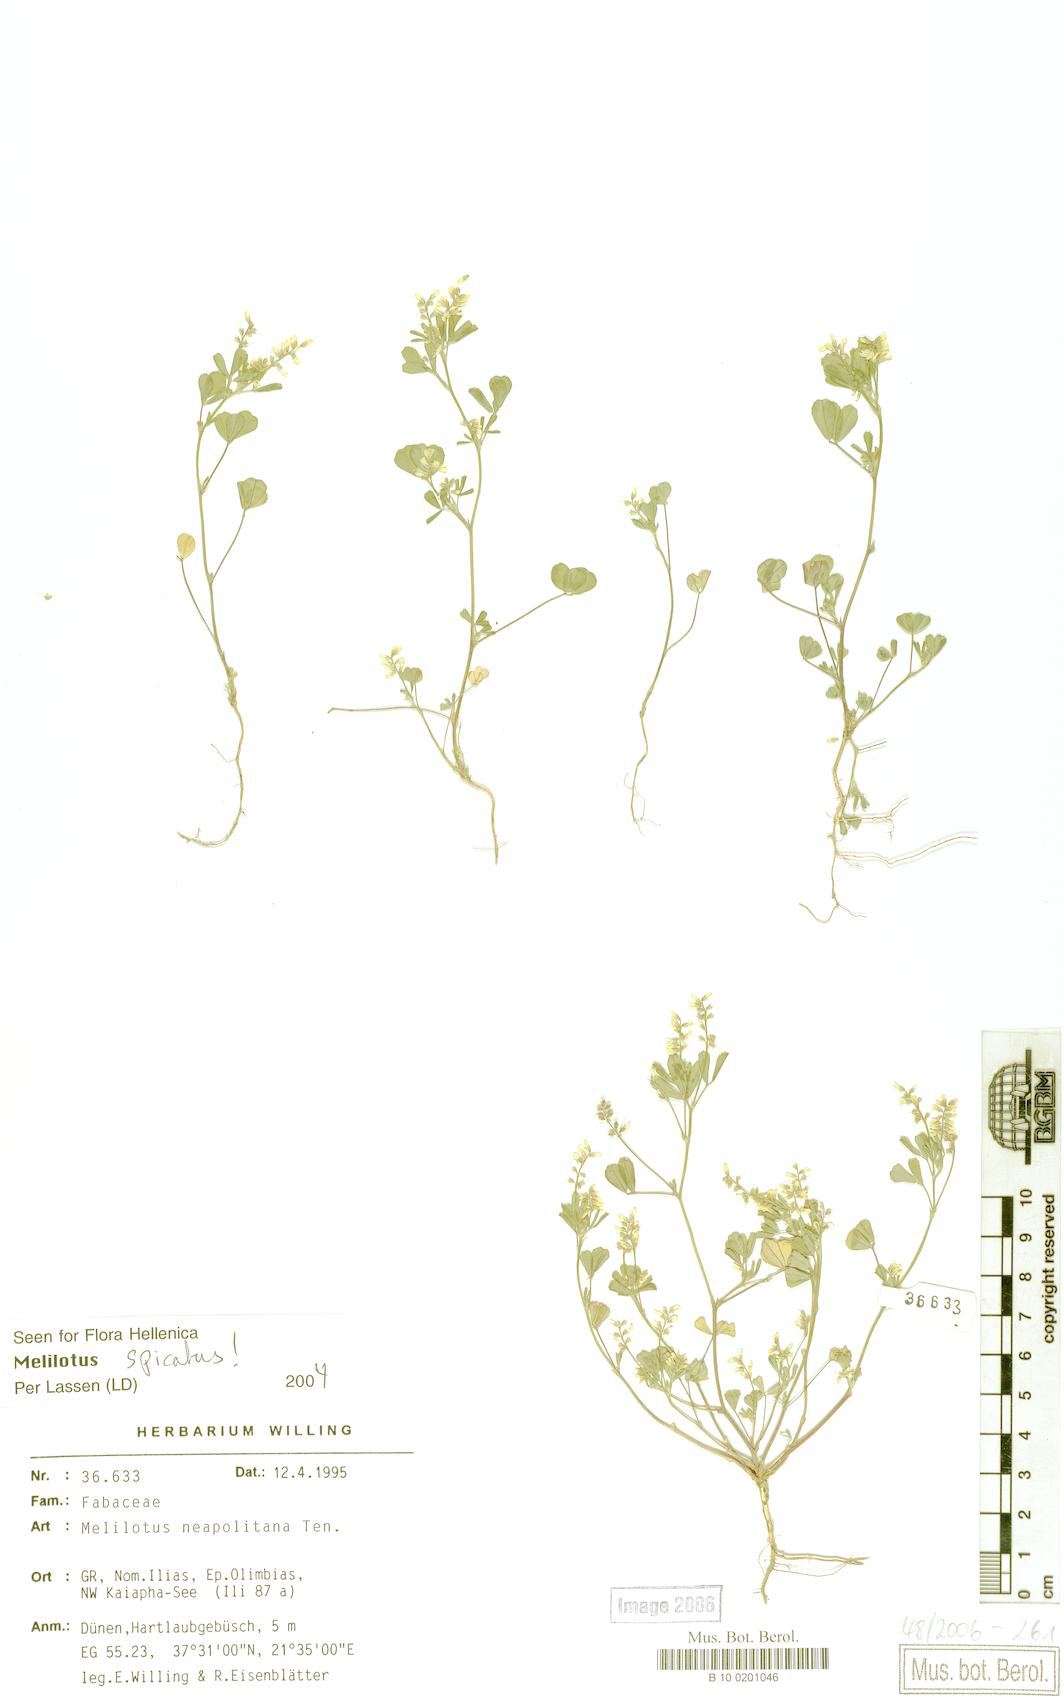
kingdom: Plantae
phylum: Tracheophyta
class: Magnoliopsida
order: Fabales
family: Fabaceae
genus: Melilotus
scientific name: Melilotus neapolitanus
